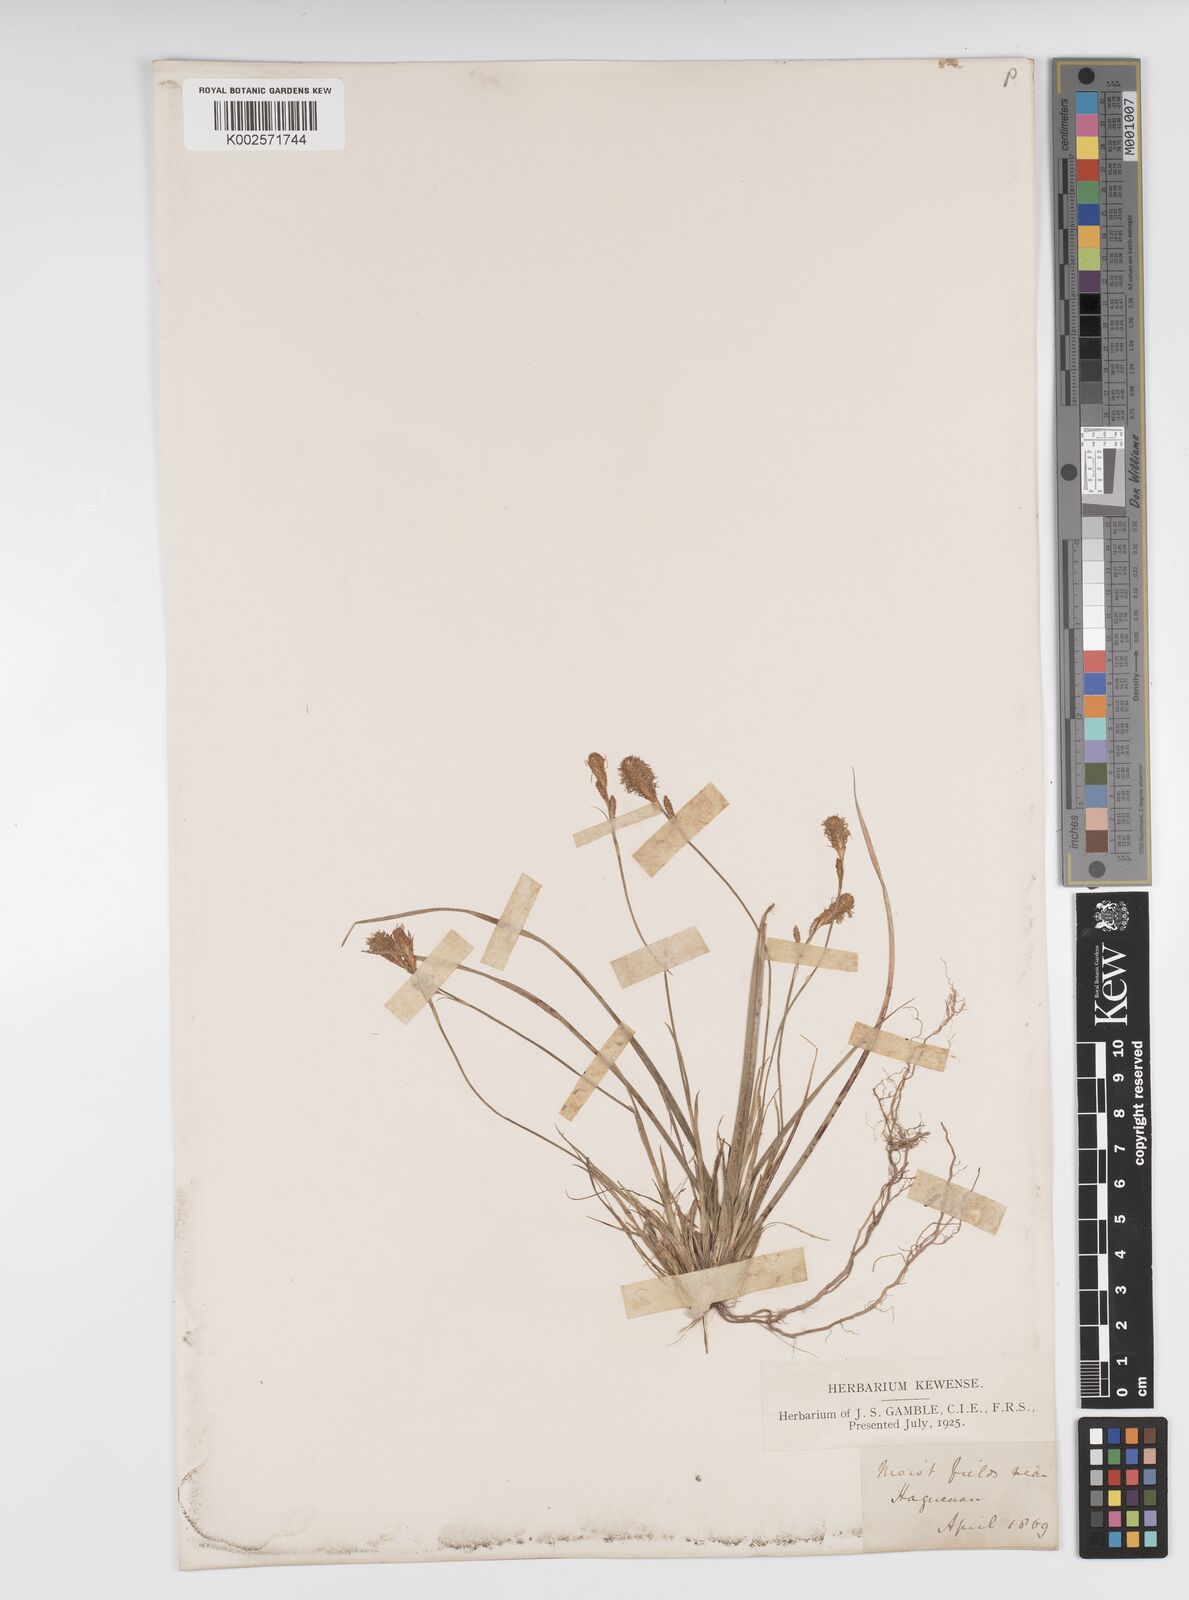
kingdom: Plantae
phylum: Tracheophyta
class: Liliopsida
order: Poales
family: Cyperaceae
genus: Carex
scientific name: Carex caryophyllea
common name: Spring sedge
